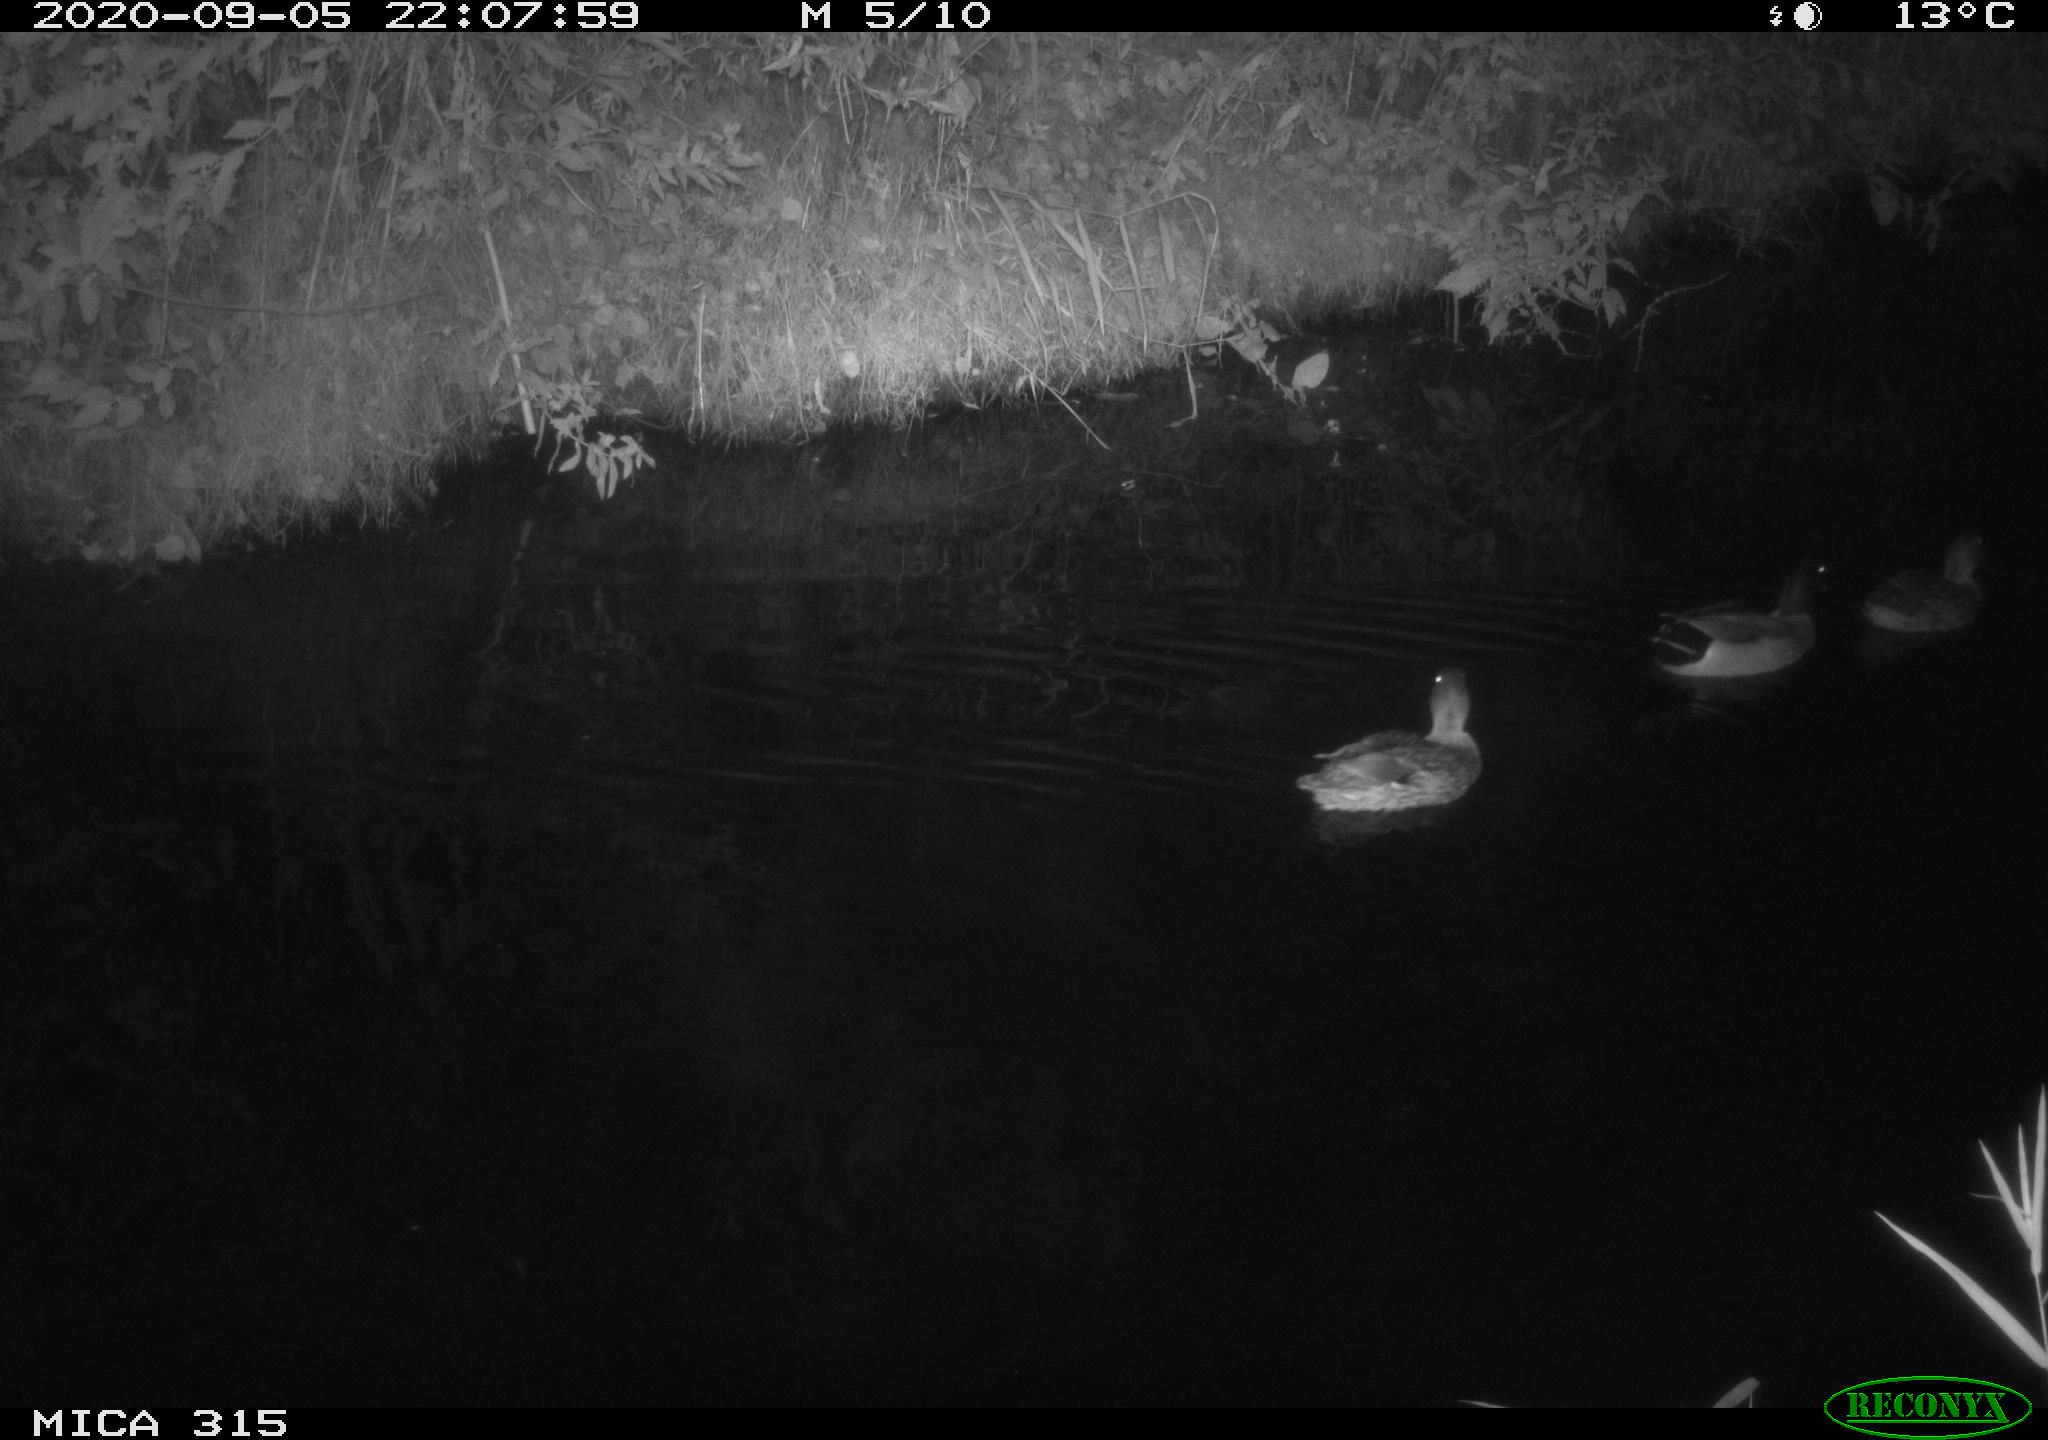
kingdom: Animalia
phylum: Chordata
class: Aves
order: Anseriformes
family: Anatidae
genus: Anas
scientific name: Anas platyrhynchos
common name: Mallard
